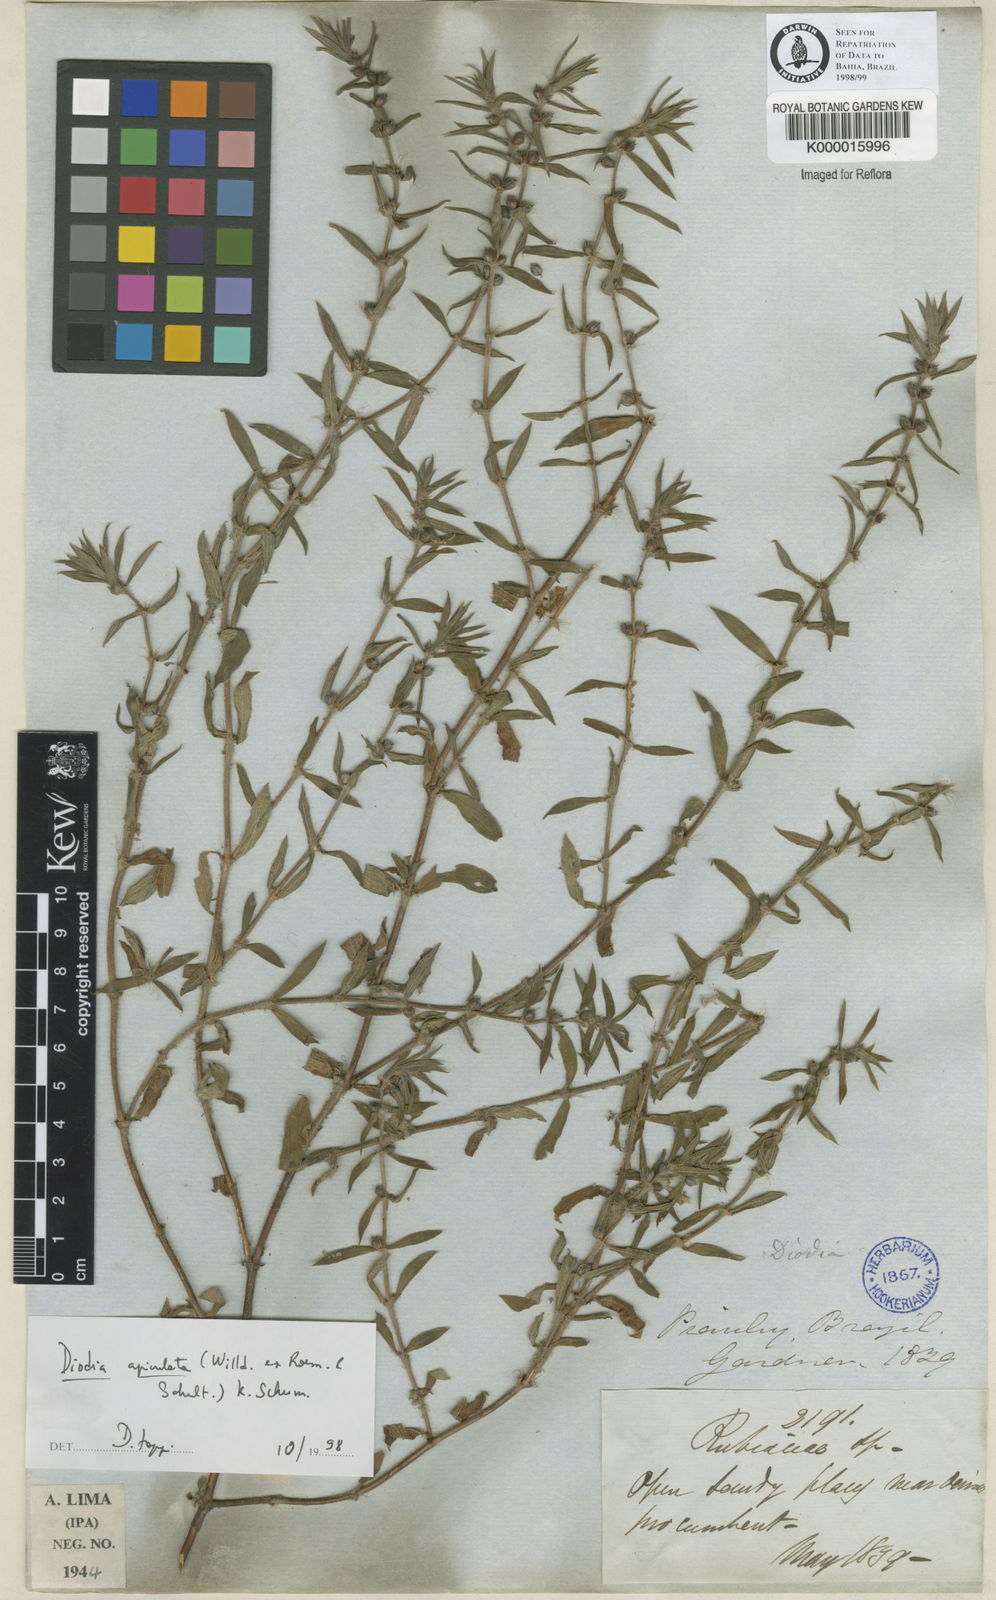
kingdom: Plantae
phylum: Tracheophyta
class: Magnoliopsida
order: Gentianales
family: Rubiaceae
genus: Hexasepalum
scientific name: Hexasepalum apiculatum
